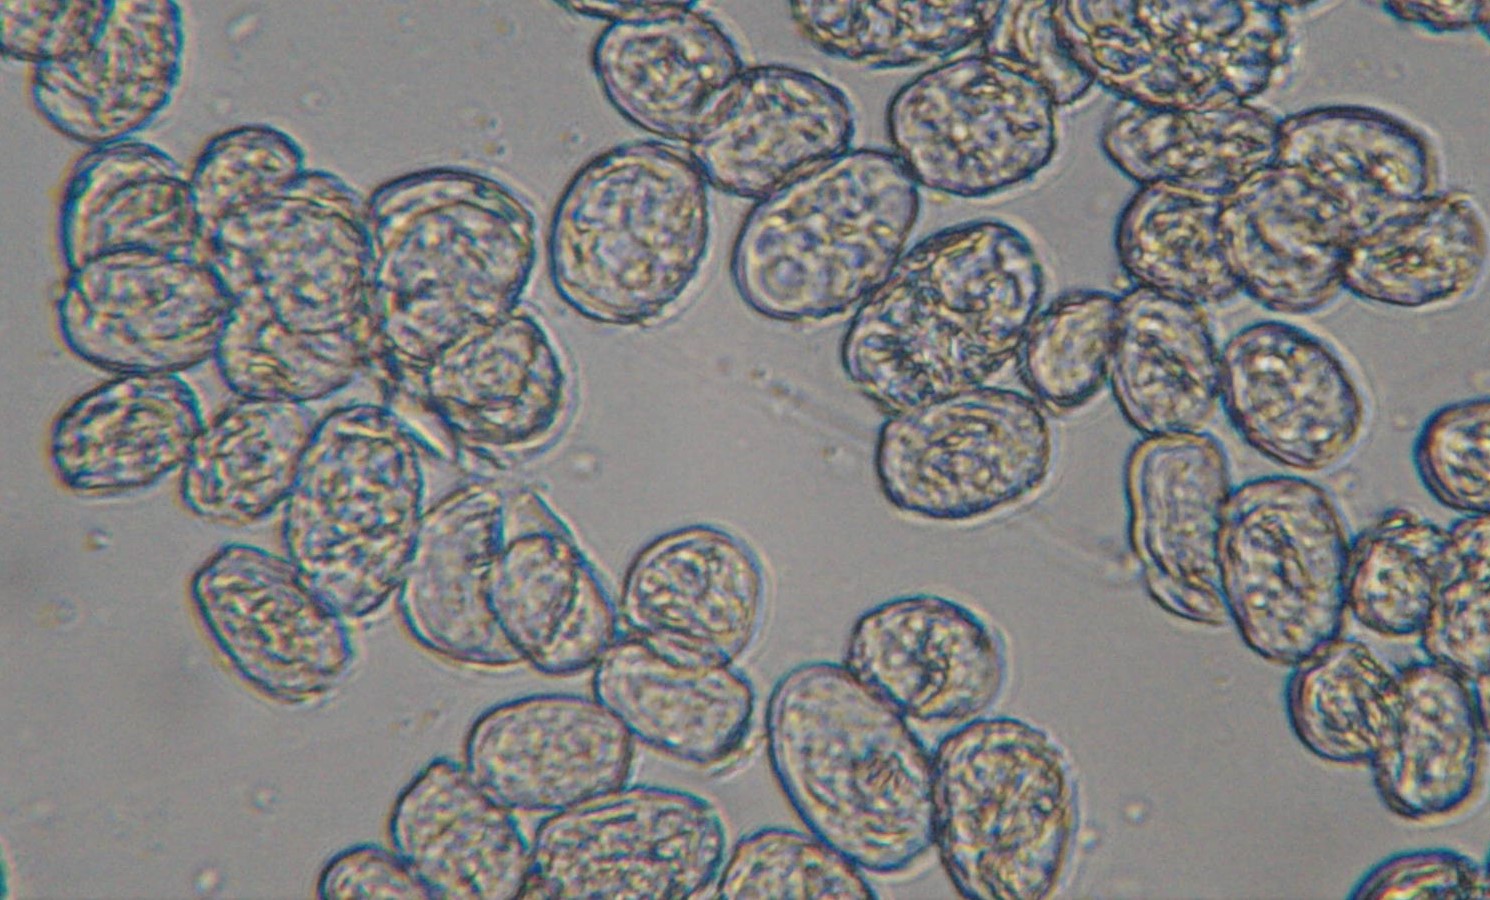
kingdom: Fungi
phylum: Ascomycota
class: Leotiomycetes
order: Helotiales
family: Erysiphaceae
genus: Podosphaera
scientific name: Podosphaera leucotricha
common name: æble-meldug
